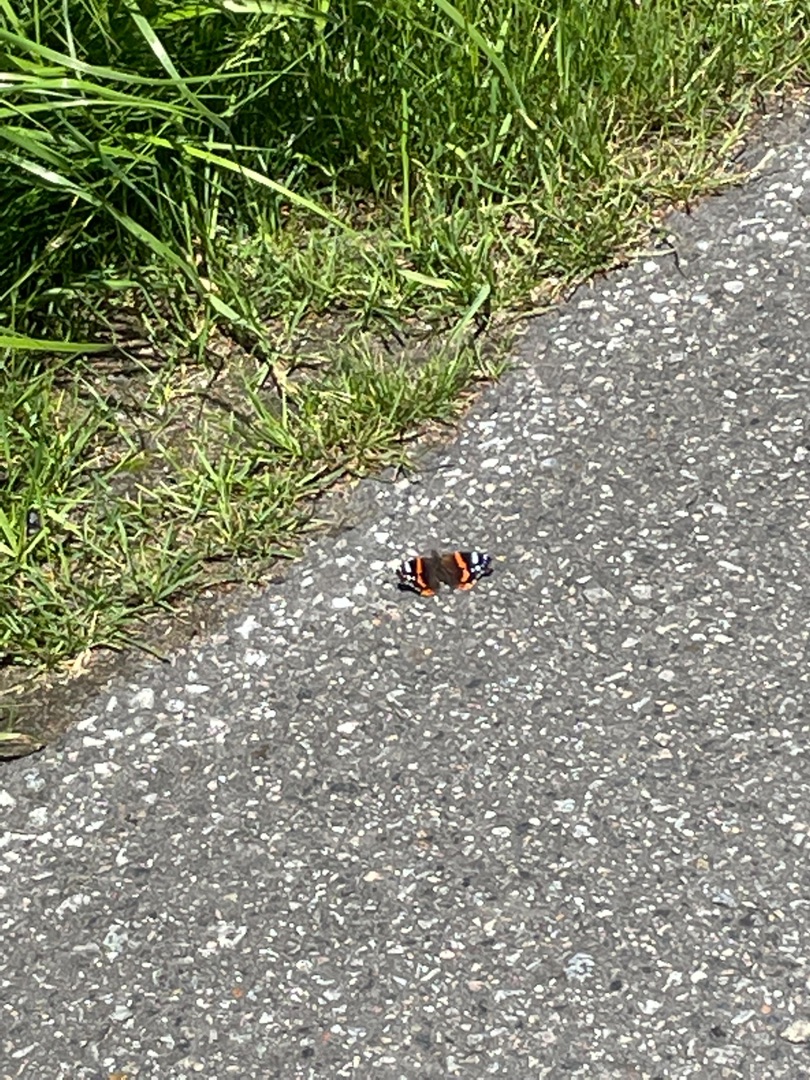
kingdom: Animalia
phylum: Arthropoda
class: Insecta
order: Lepidoptera
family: Nymphalidae
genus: Vanessa
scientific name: Vanessa atalanta
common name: Admiral
